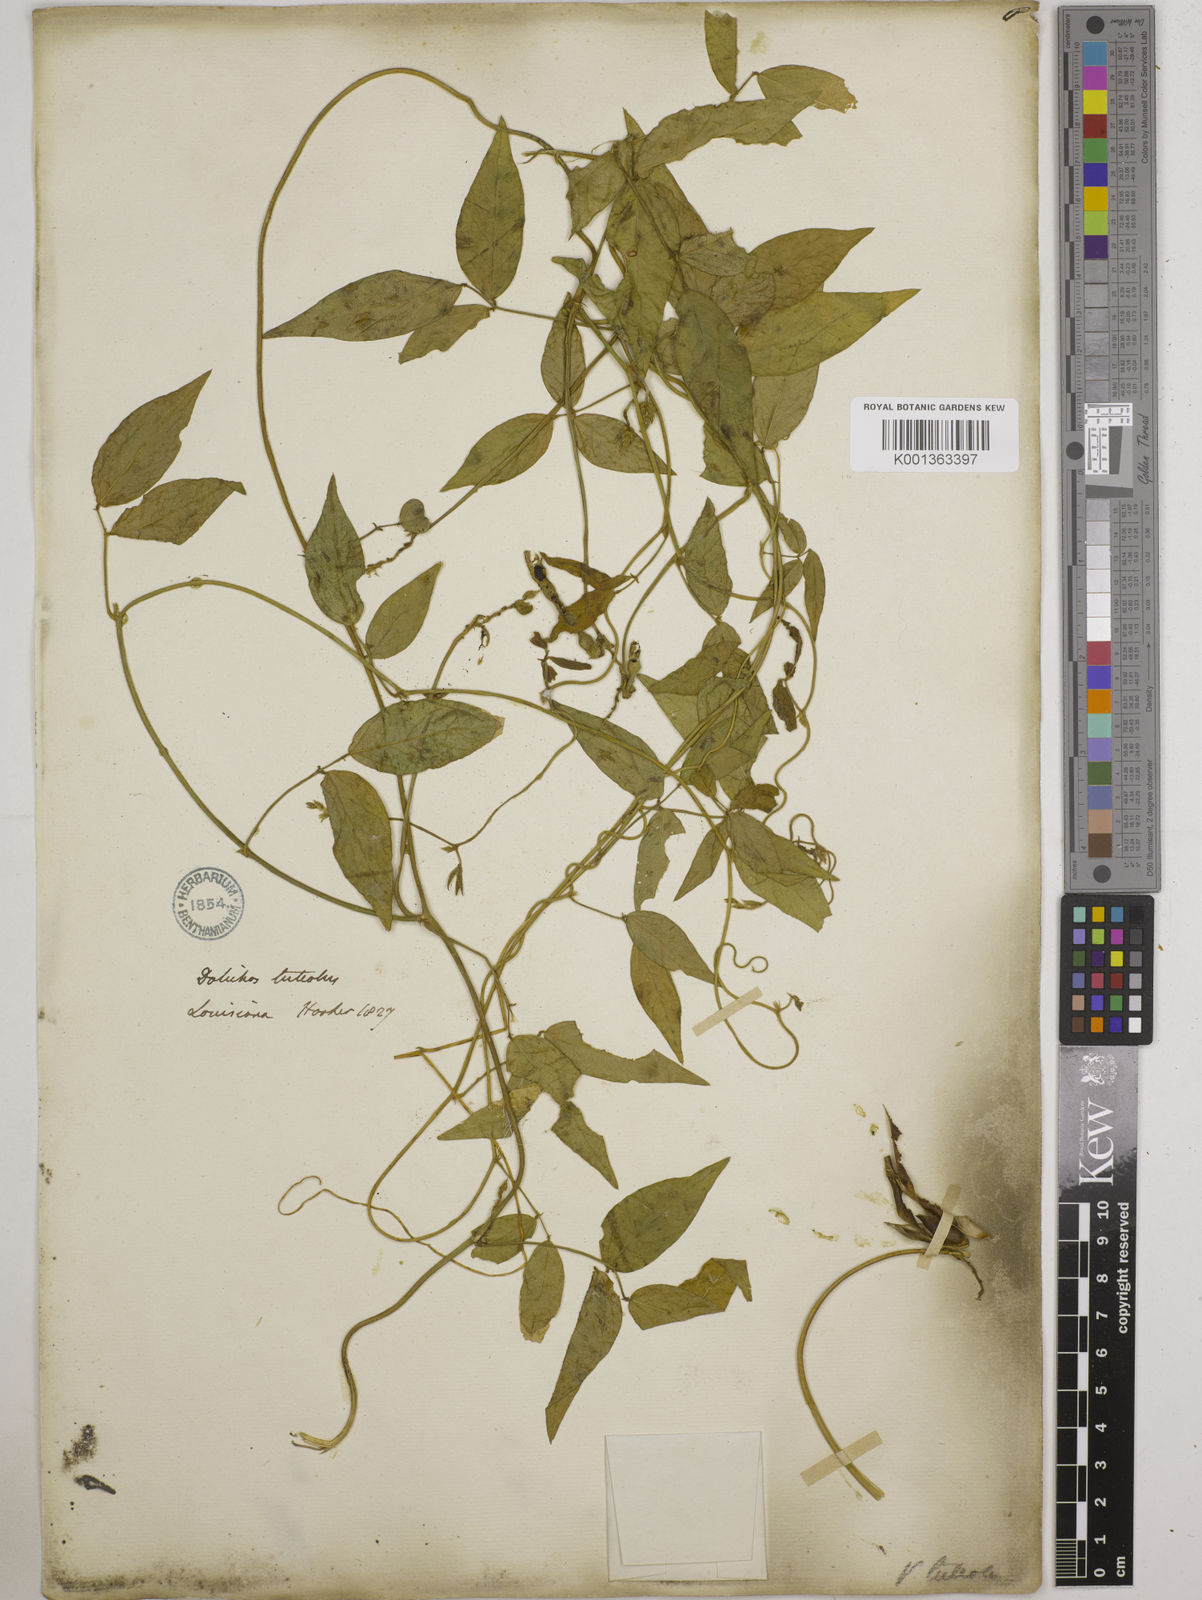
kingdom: Plantae
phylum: Tracheophyta
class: Magnoliopsida
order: Fabales
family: Fabaceae
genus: Vigna
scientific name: Vigna luteola
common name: Hairypod cowpea
